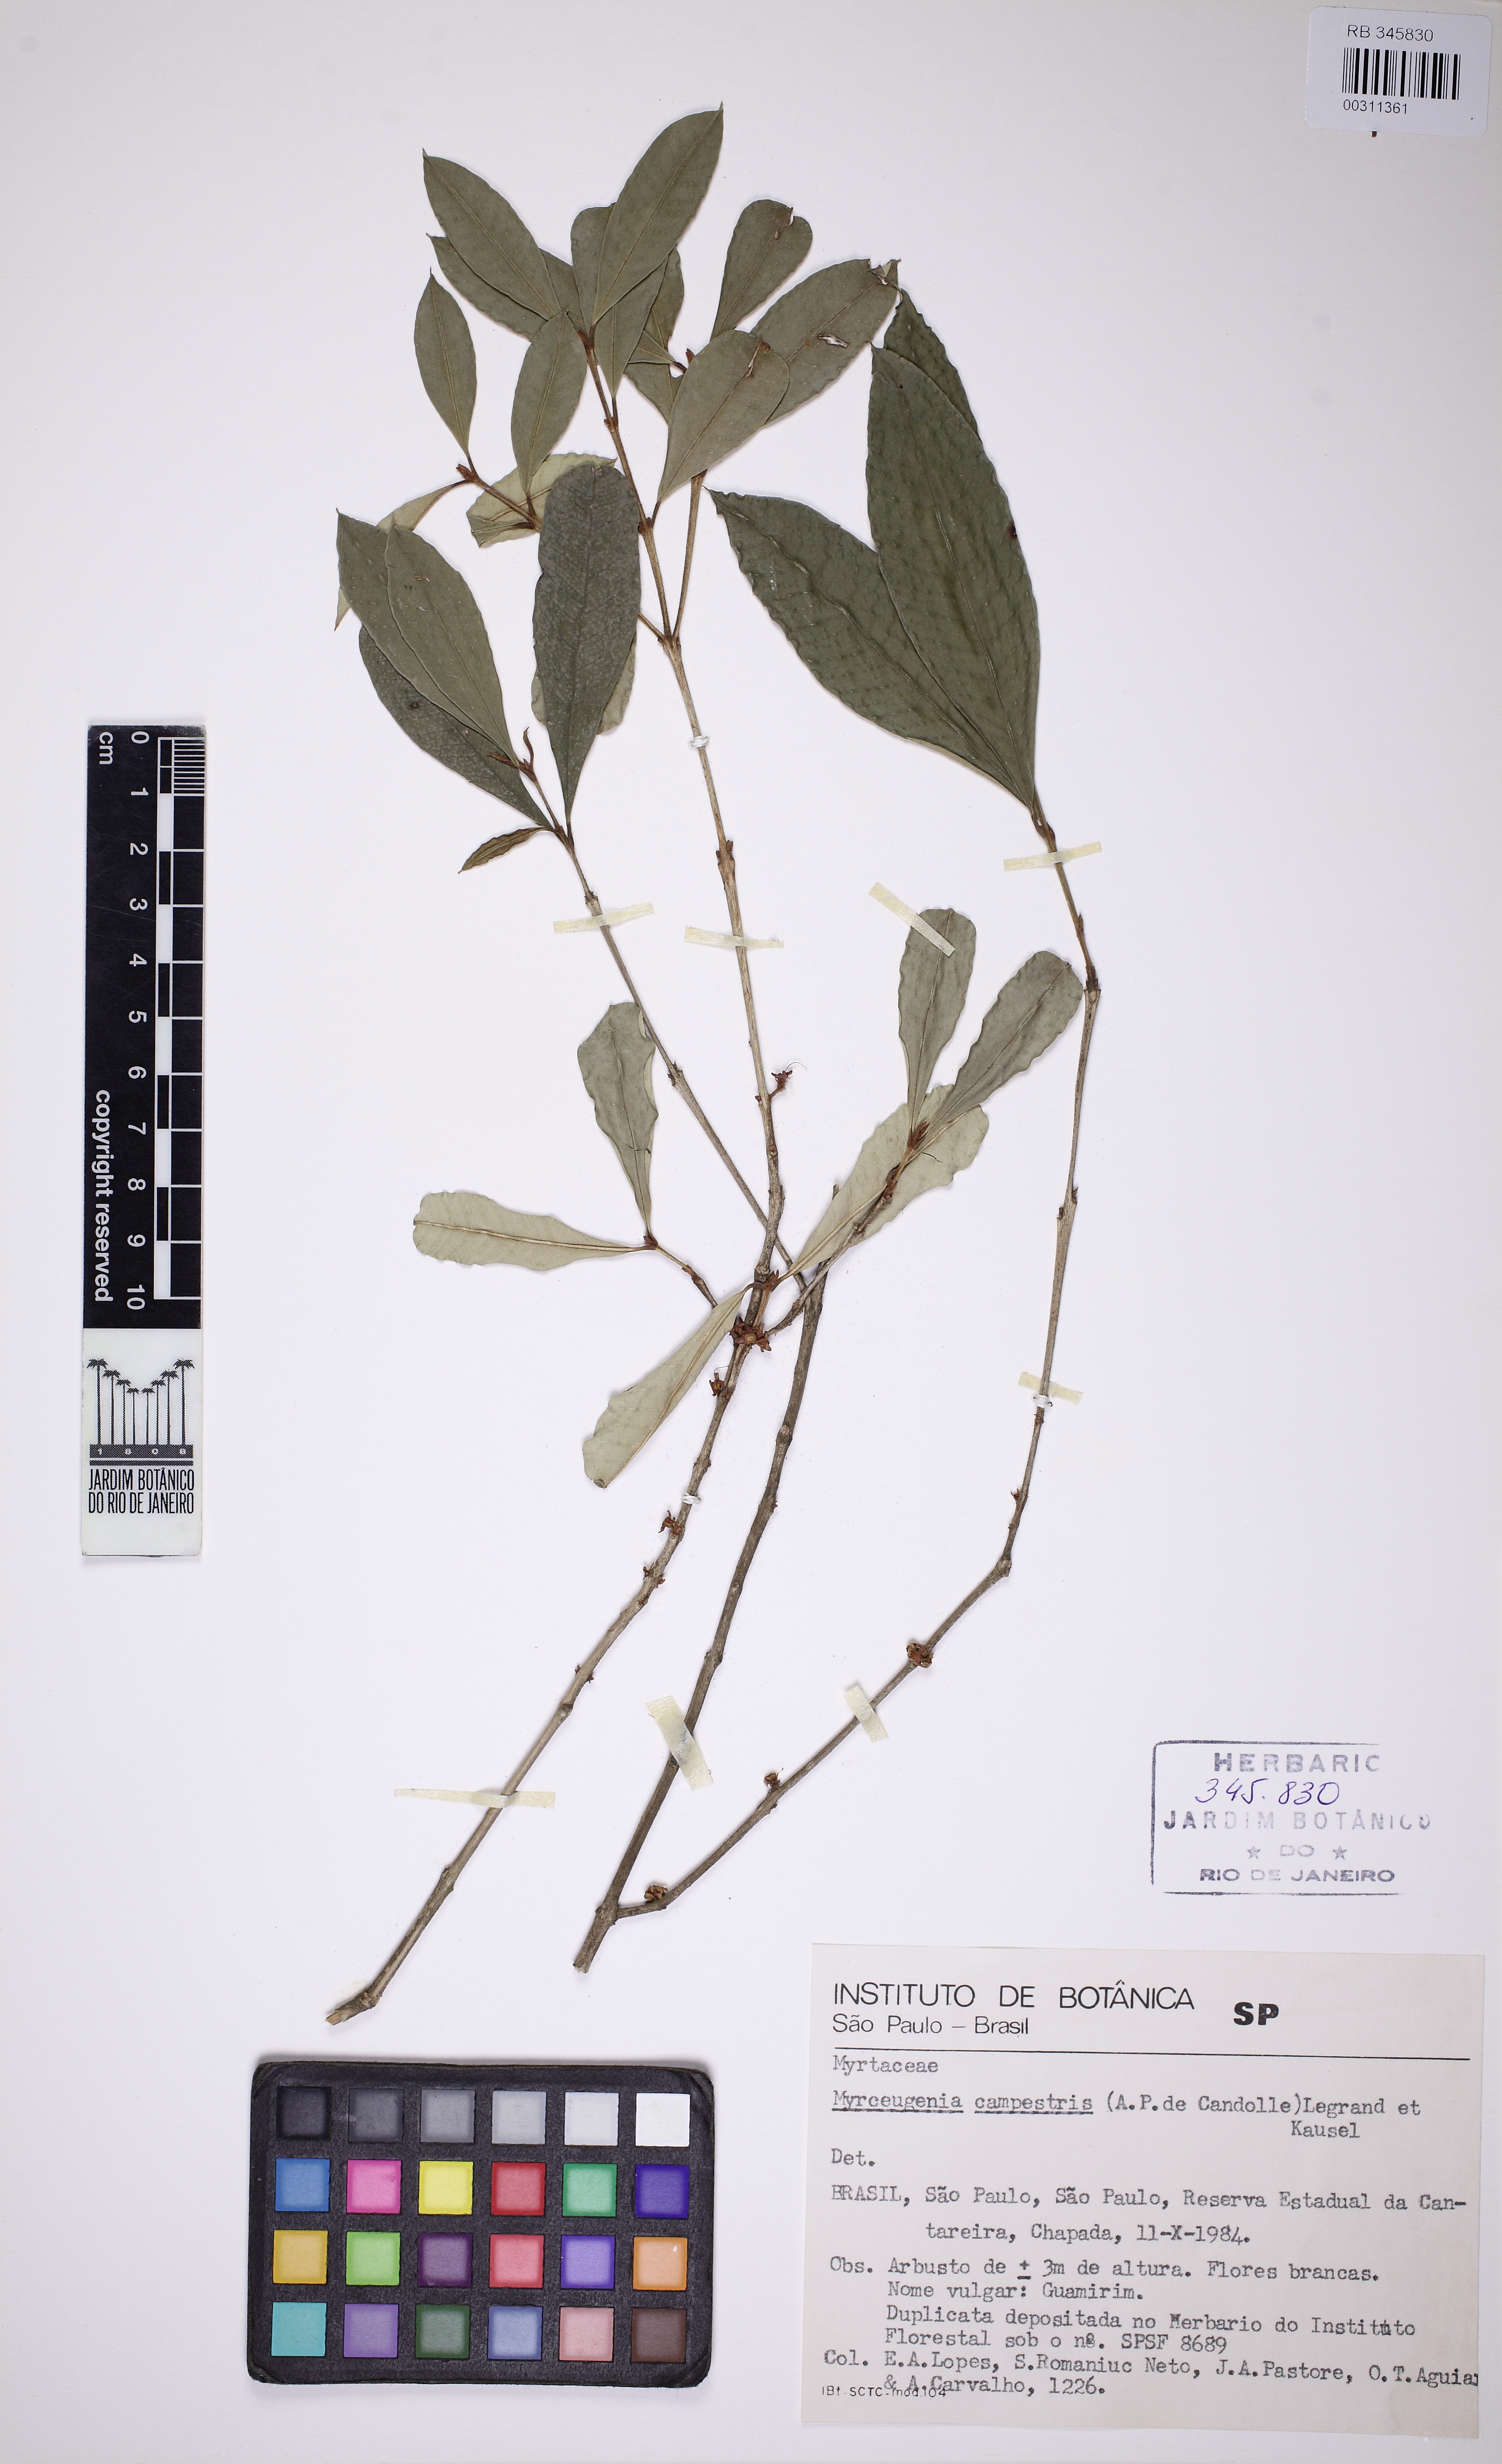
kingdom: Plantae
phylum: Tracheophyta
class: Magnoliopsida
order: Myrtales
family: Myrtaceae
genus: Myrceugenia
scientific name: Myrceugenia campestris
